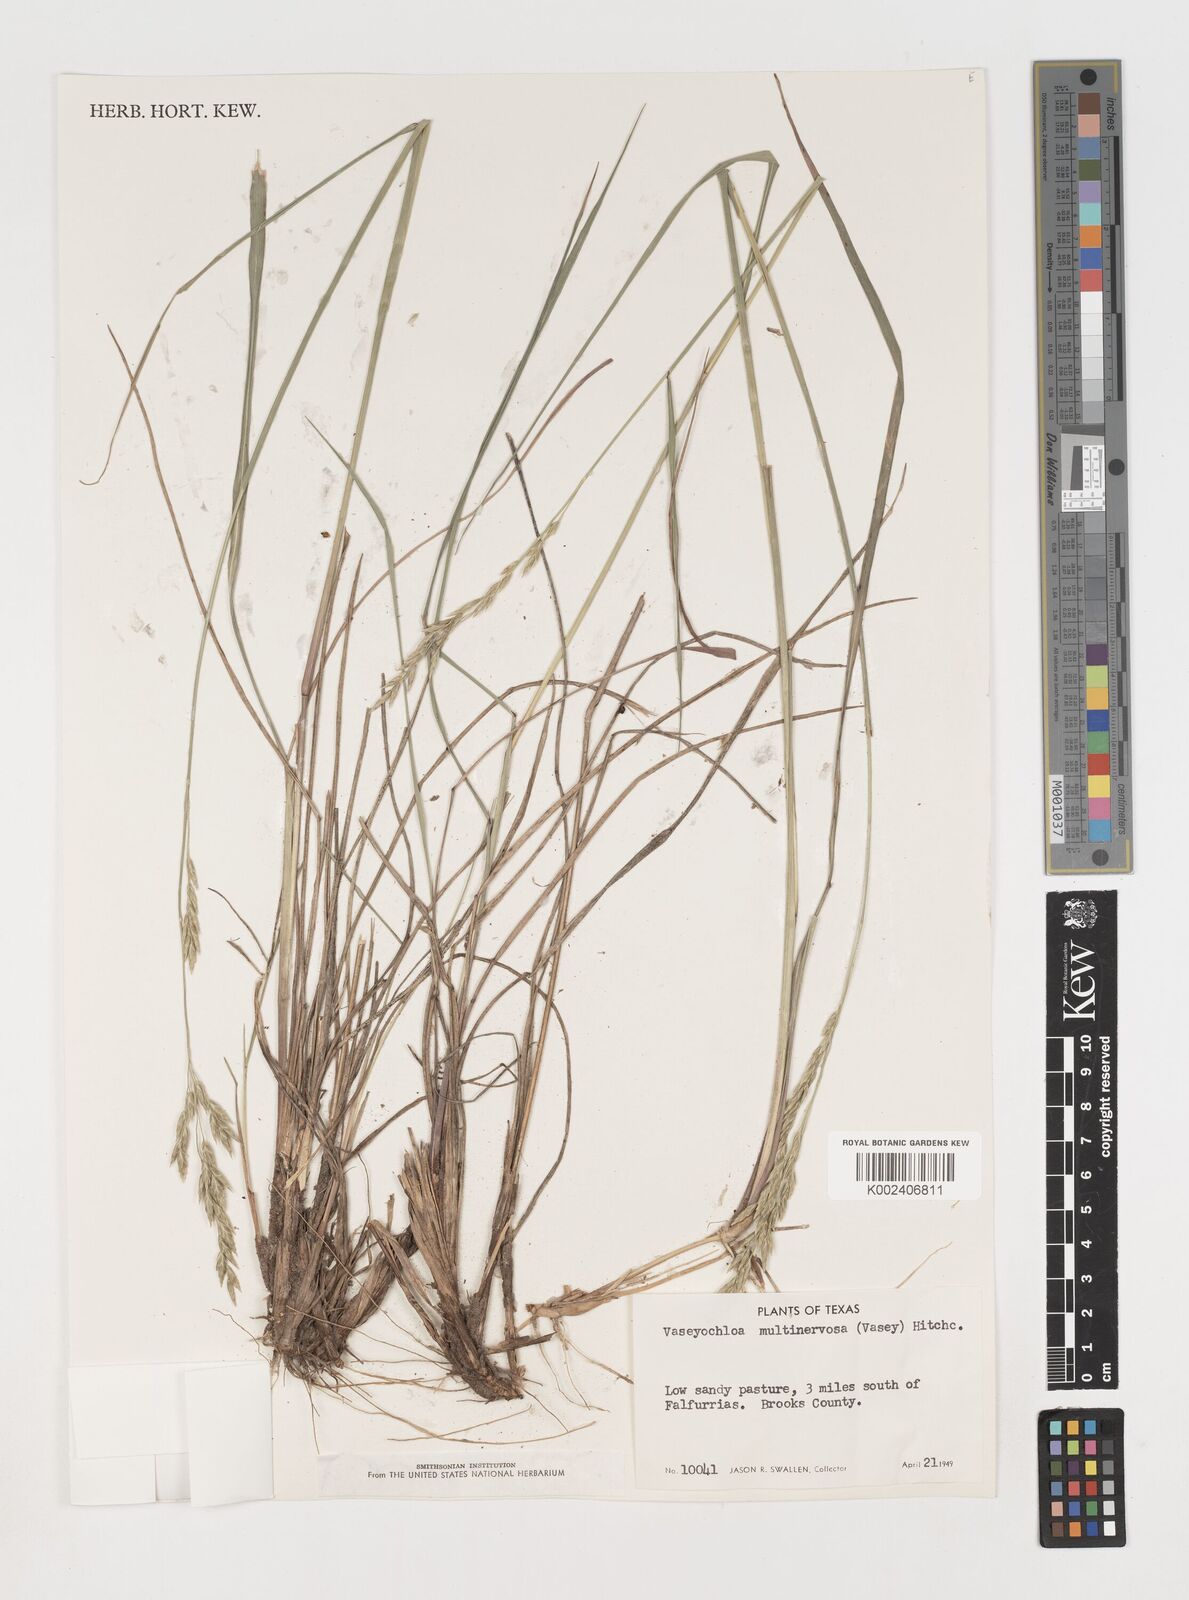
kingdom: Plantae
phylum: Tracheophyta
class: Liliopsida
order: Poales
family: Poaceae
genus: Vaseyochloa
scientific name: Vaseyochloa multinervosa
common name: Texas grass
